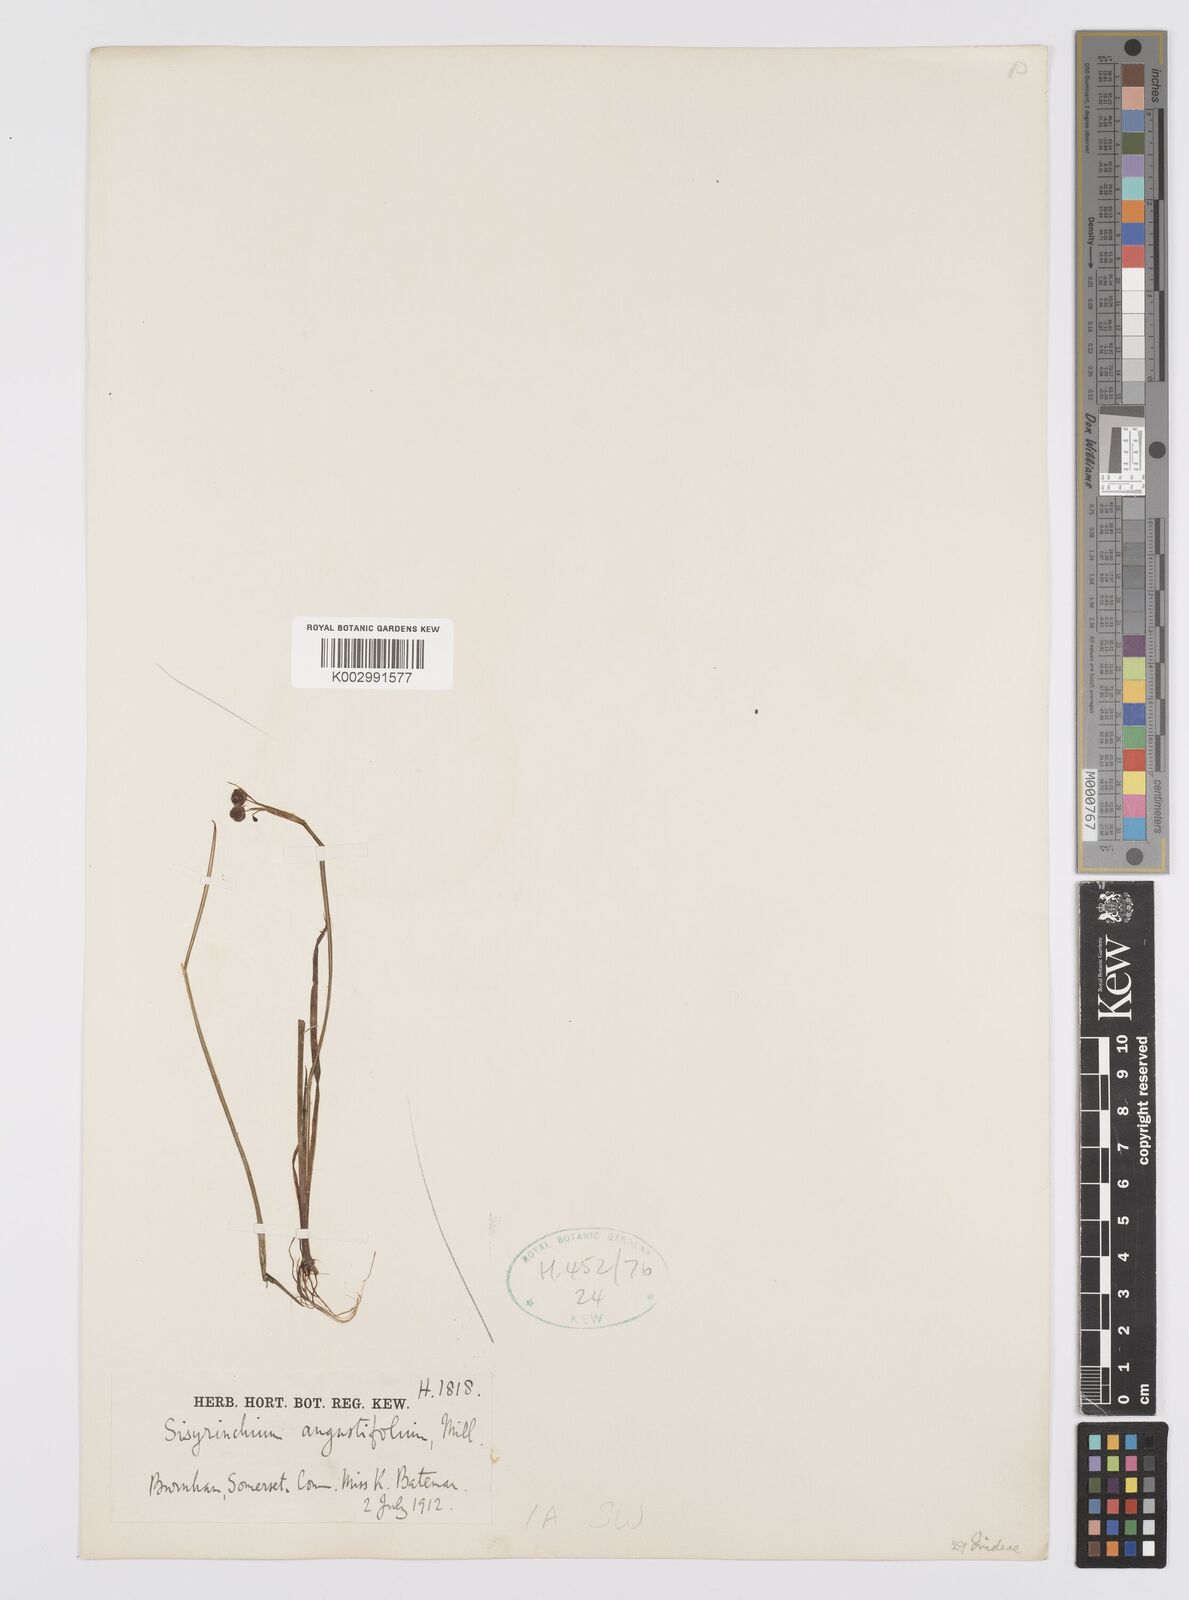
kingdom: Plantae
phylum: Tracheophyta
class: Liliopsida
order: Asparagales
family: Iridaceae
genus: Sisyrinchium
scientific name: Sisyrinchium angustifolium
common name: Narrow-leaf blue-eyed-grass
